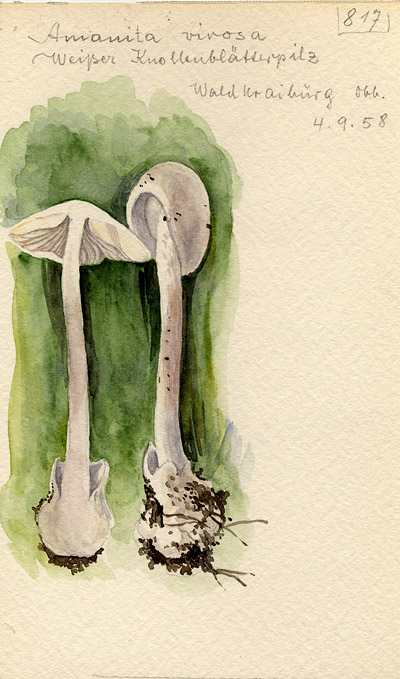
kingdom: Fungi
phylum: Basidiomycota
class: Agaricomycetes
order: Agaricales
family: Amanitaceae
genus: Amanita
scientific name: Amanita virosa
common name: Destroying angel
